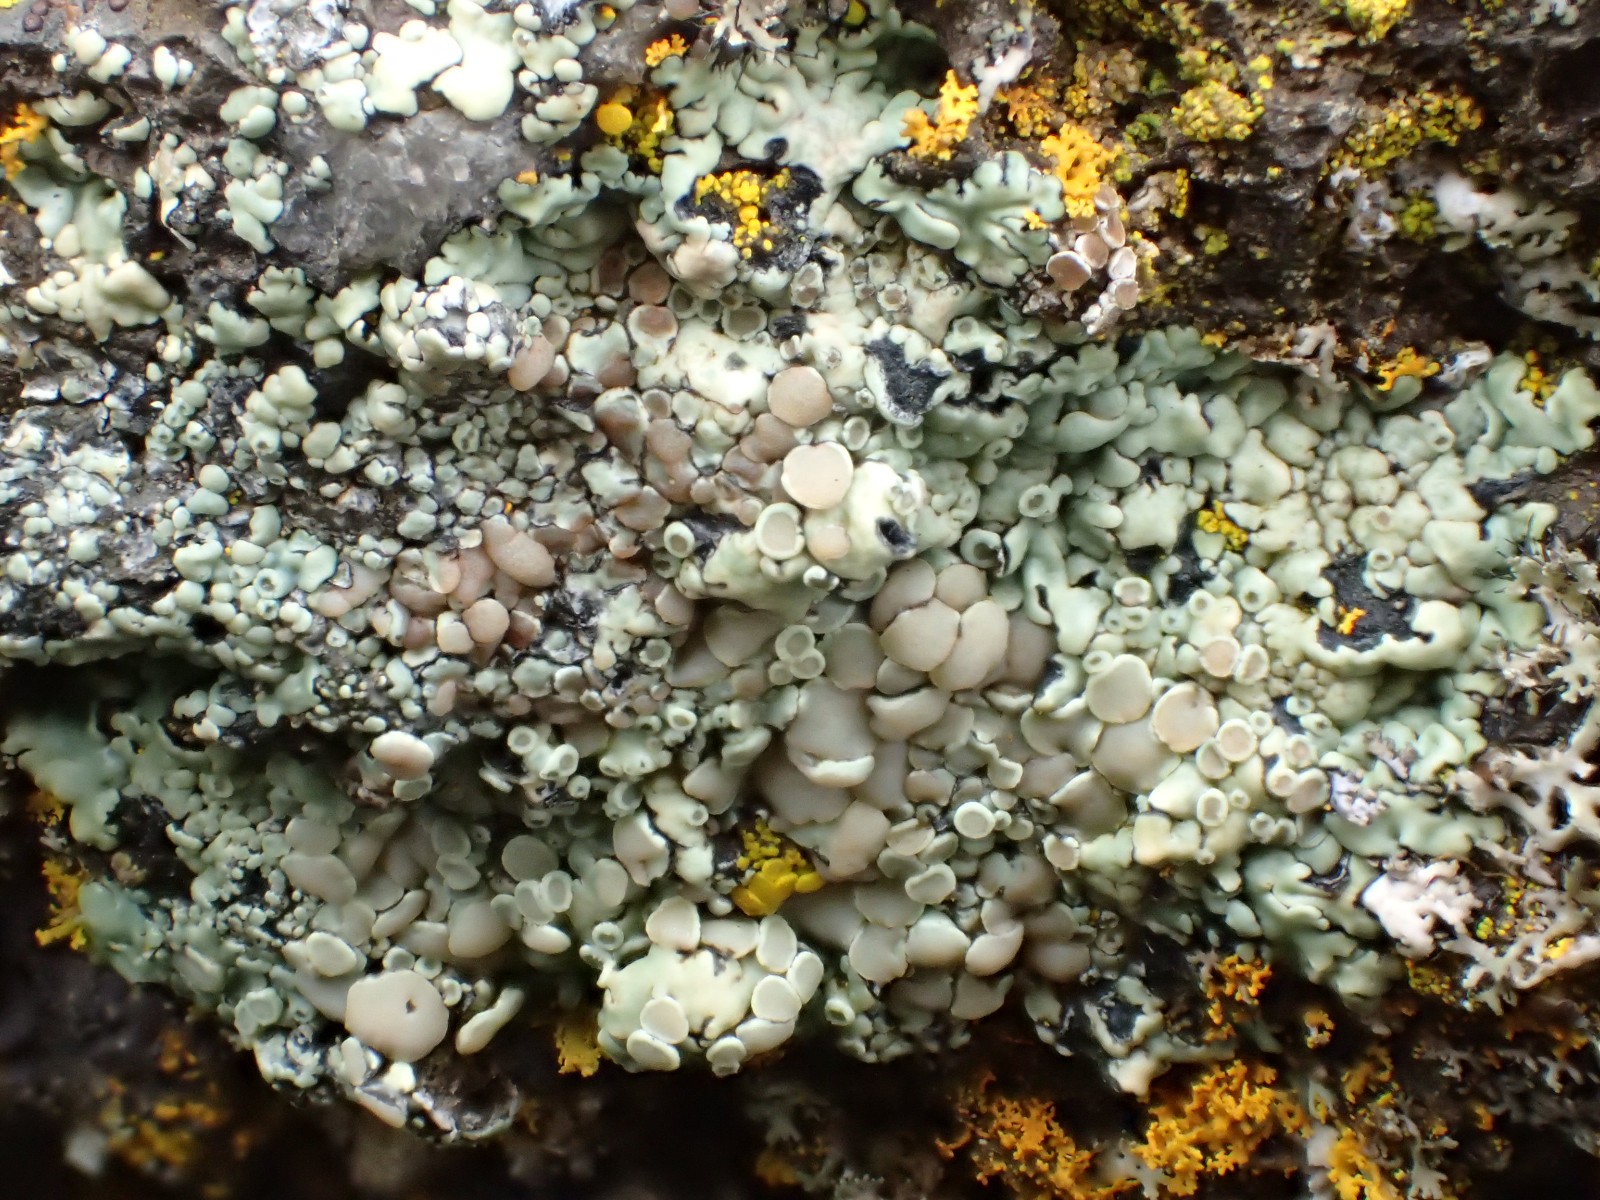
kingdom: Fungi
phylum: Ascomycota
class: Lecanoromycetes
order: Lecanorales
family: Lecanoraceae
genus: Protoparmeliopsis
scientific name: Protoparmeliopsis muralis
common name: randfliget kantskivelav
